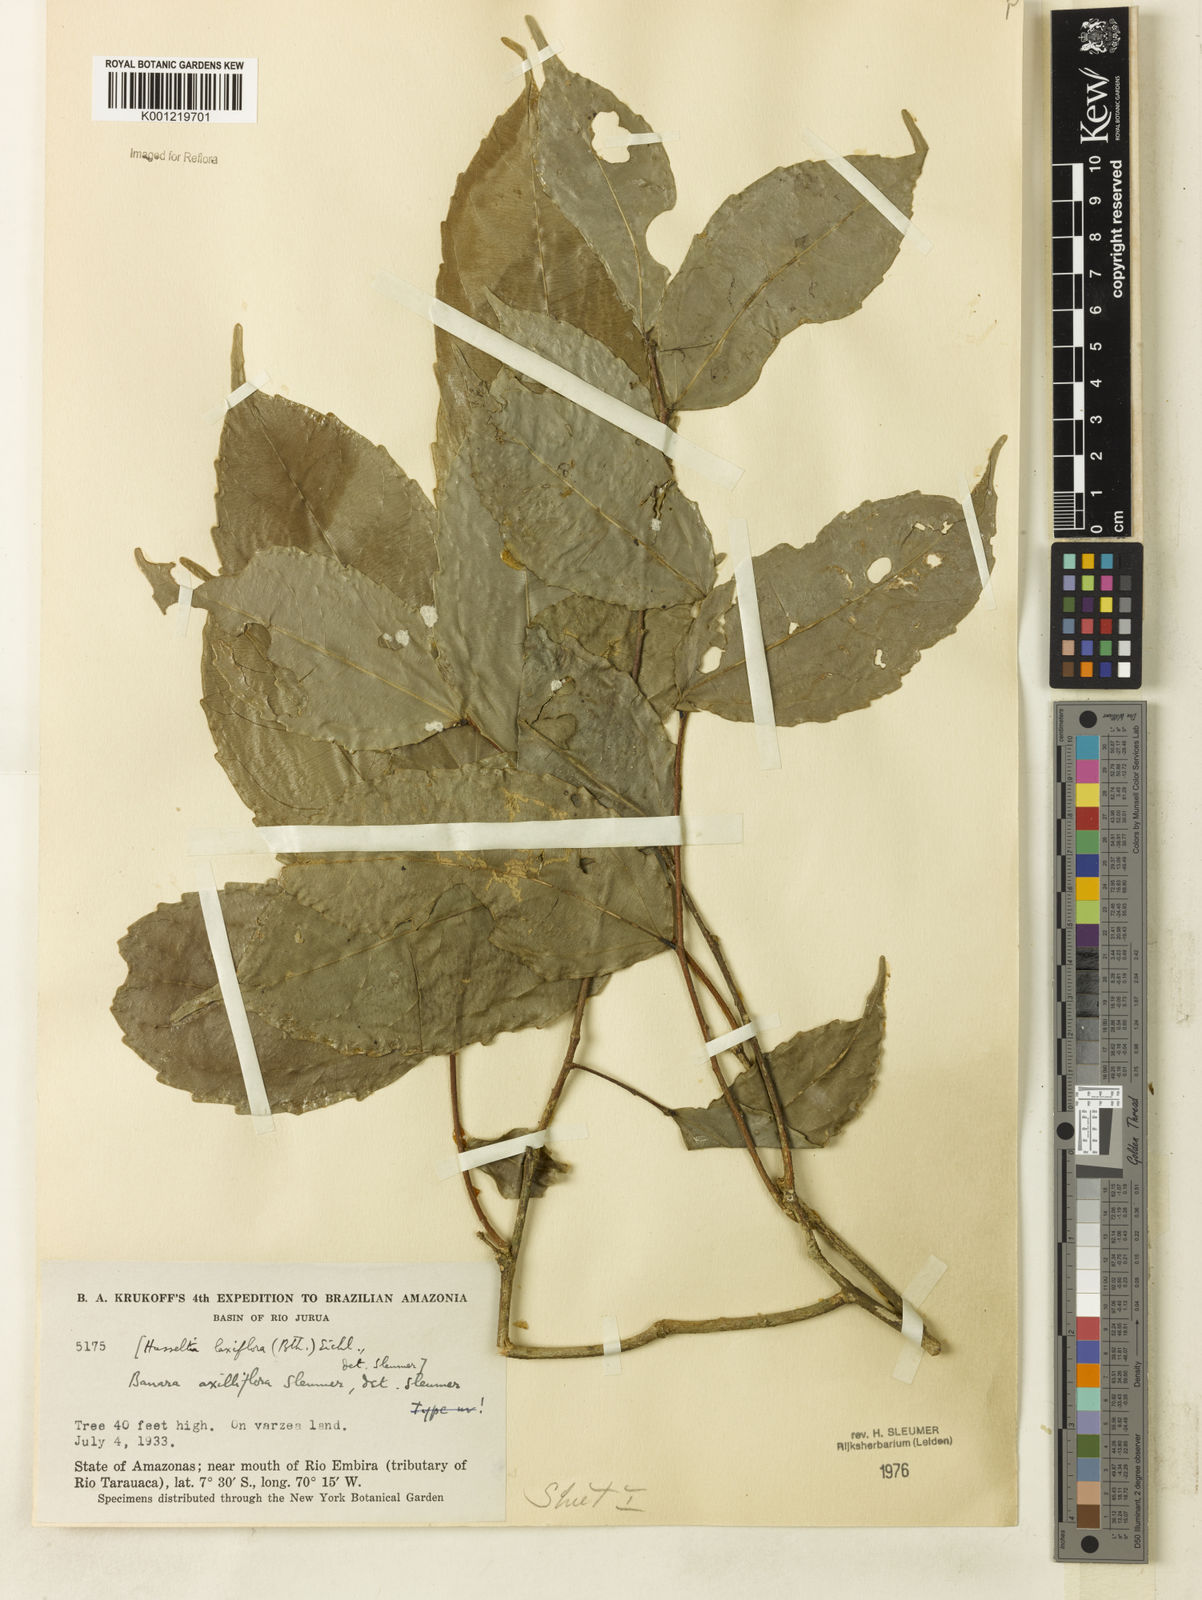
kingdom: Plantae
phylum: Tracheophyta
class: Magnoliopsida
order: Malpighiales
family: Salicaceae
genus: Banara
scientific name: Banara axilliflora
